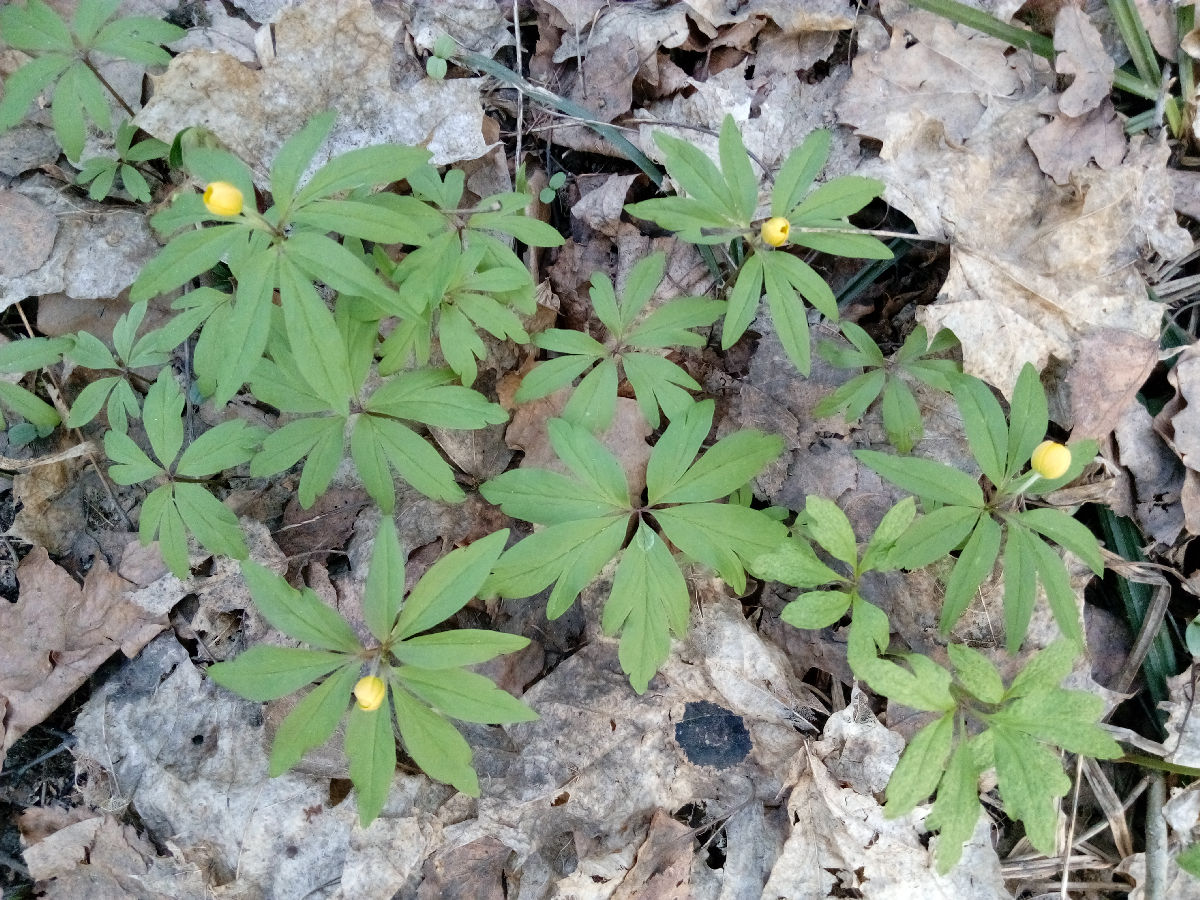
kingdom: Plantae
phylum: Tracheophyta
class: Magnoliopsida
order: Ranunculales
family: Ranunculaceae
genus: Anemone
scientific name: Anemone ranunculoides
